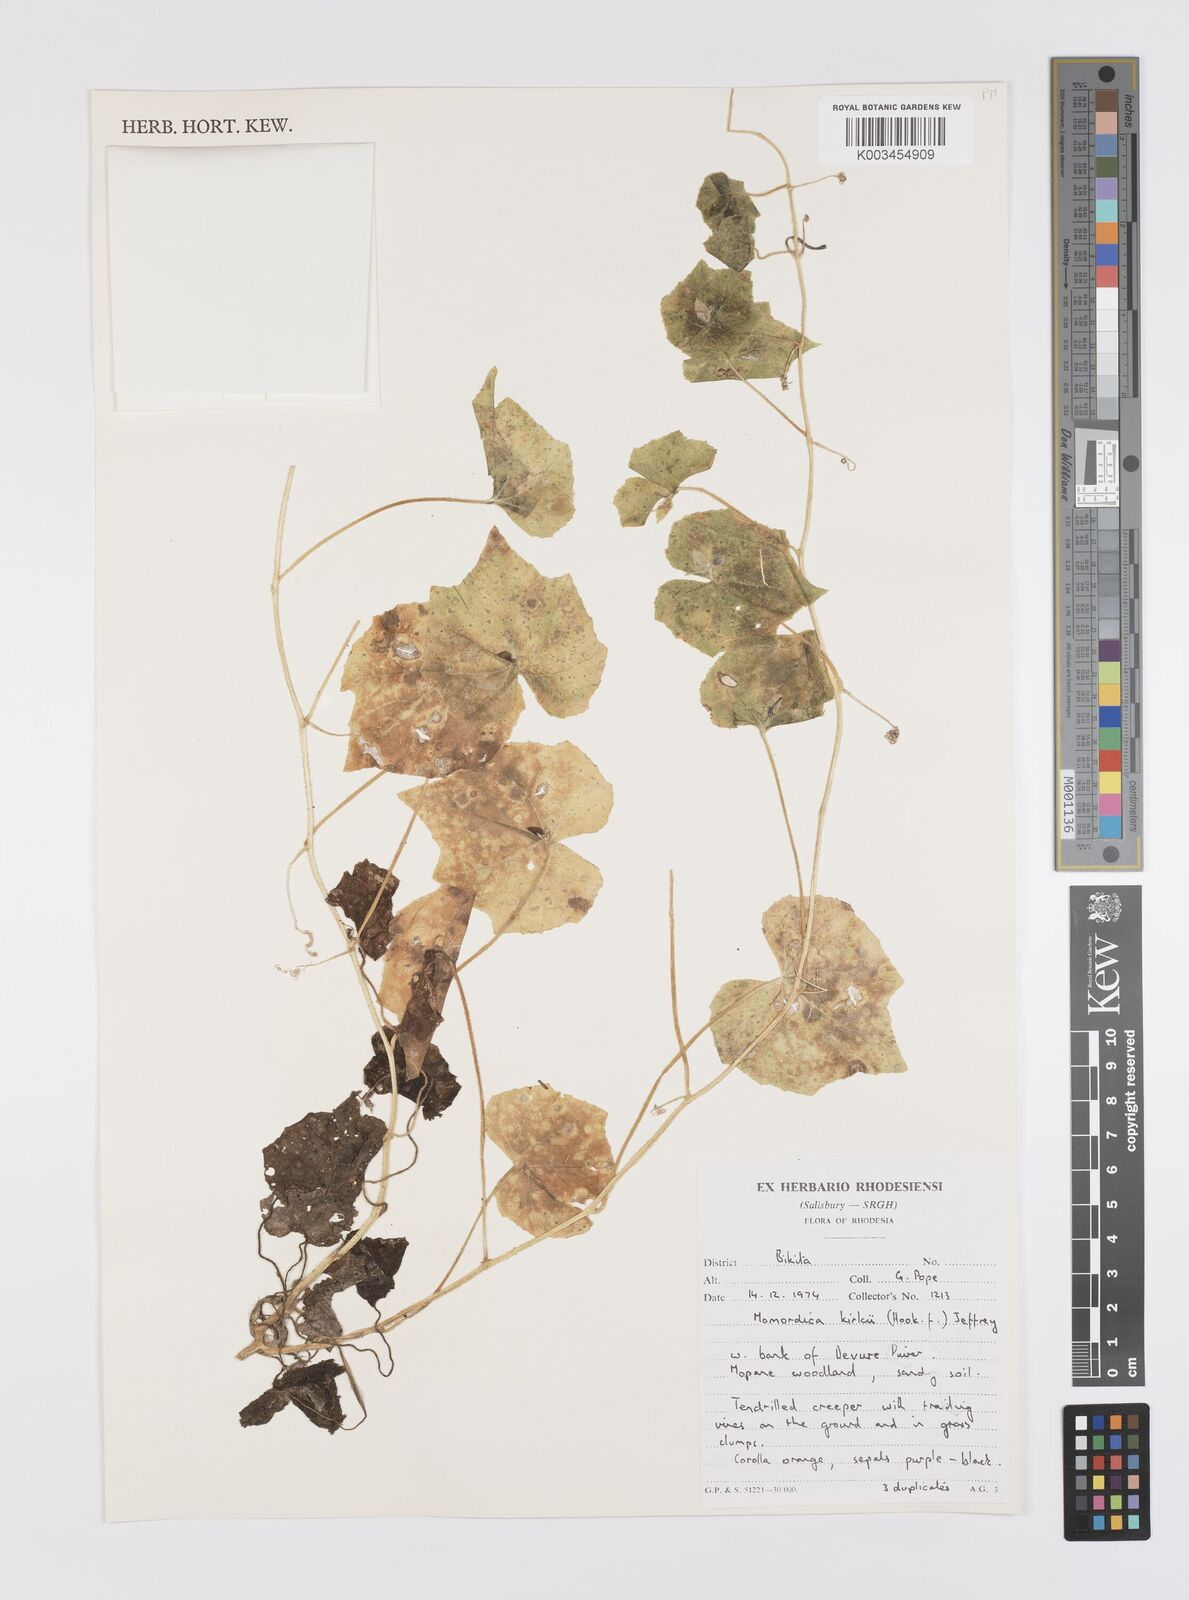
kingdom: Plantae
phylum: Tracheophyta
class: Magnoliopsida
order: Cucurbitales
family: Cucurbitaceae
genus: Momordica
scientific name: Momordica kirkii
